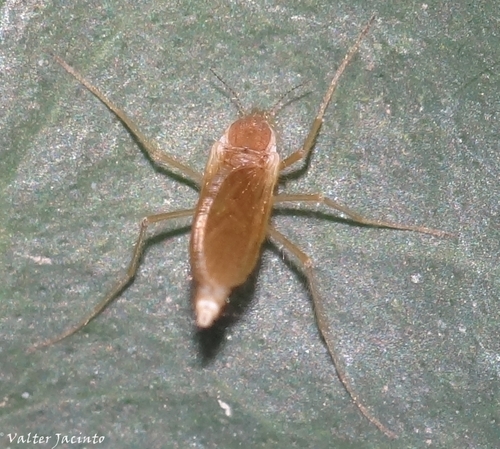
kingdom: Animalia
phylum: Arthropoda
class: Insecta
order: Diptera
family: Chaoboridae
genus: Chaoborus
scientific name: Chaoborus flavicans
